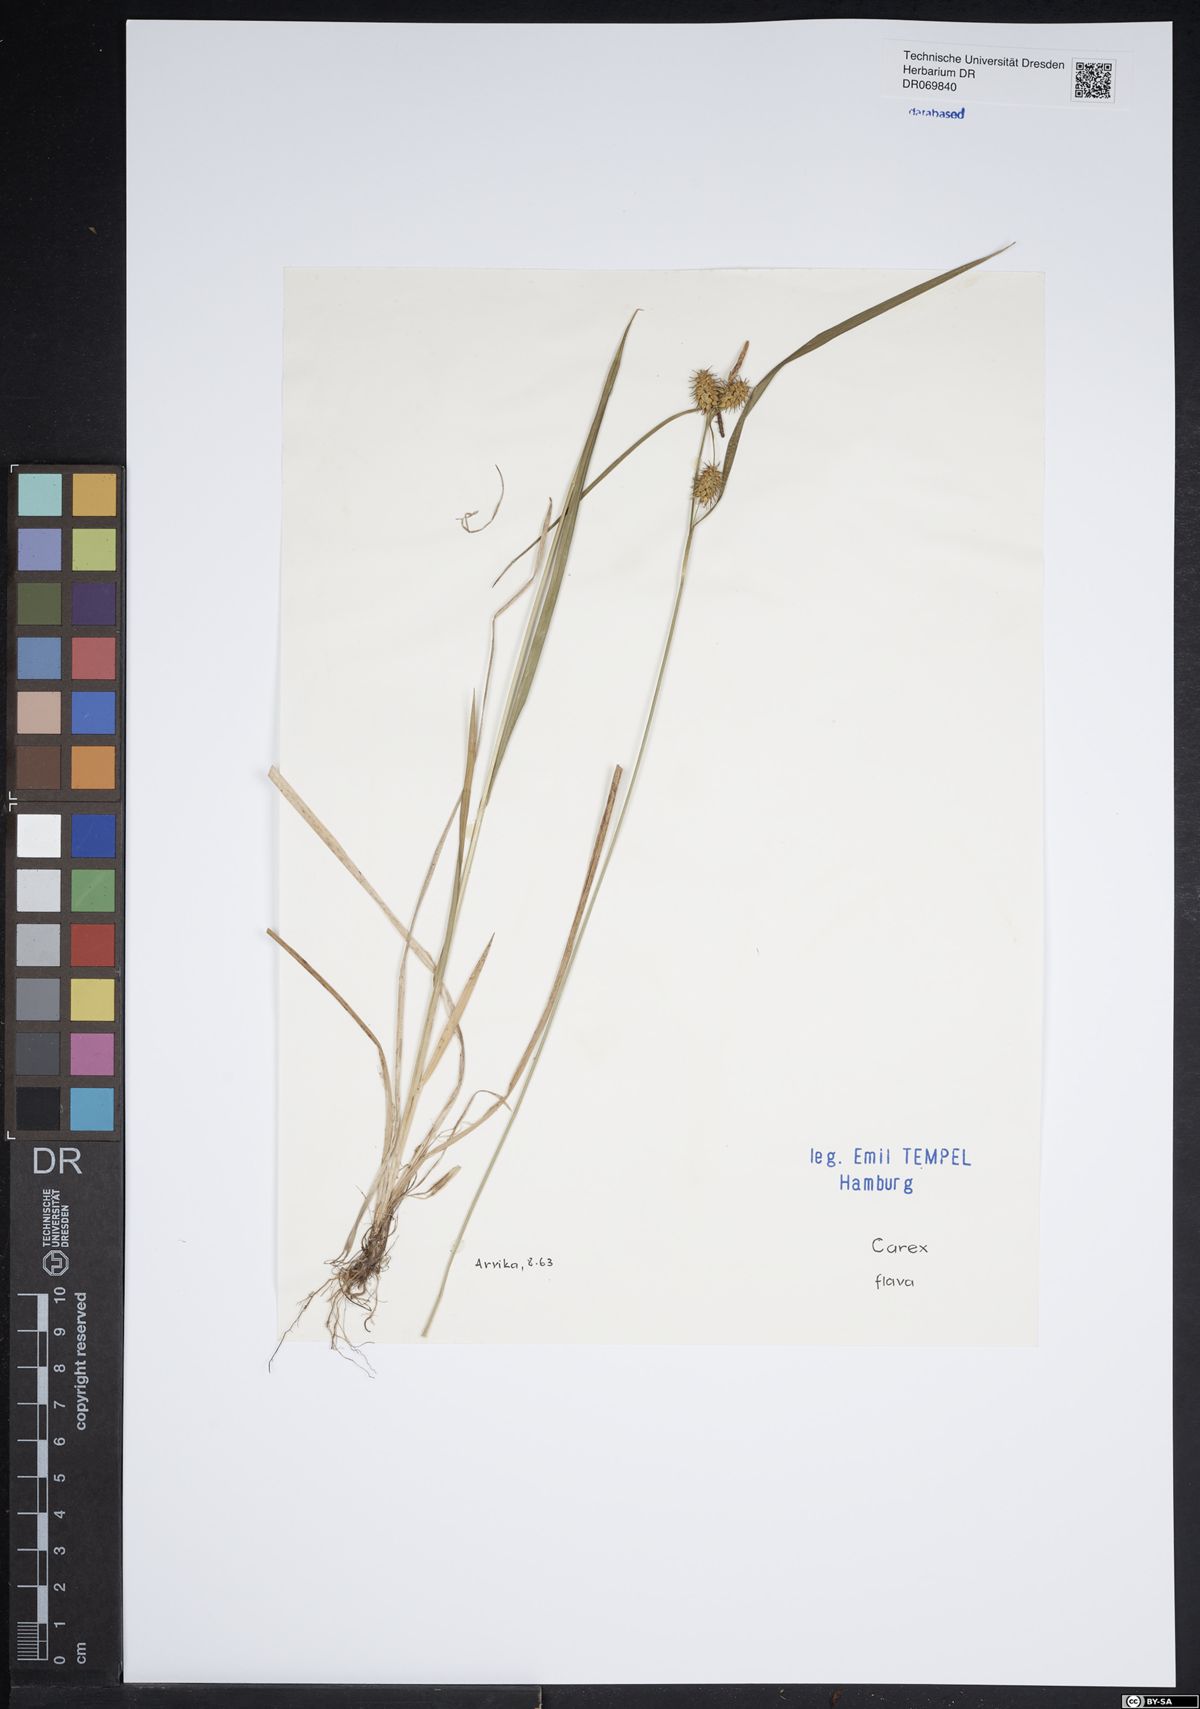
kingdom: Plantae
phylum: Tracheophyta
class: Liliopsida
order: Poales
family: Cyperaceae
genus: Carex
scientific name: Carex flava
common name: Large yellow-sedge
